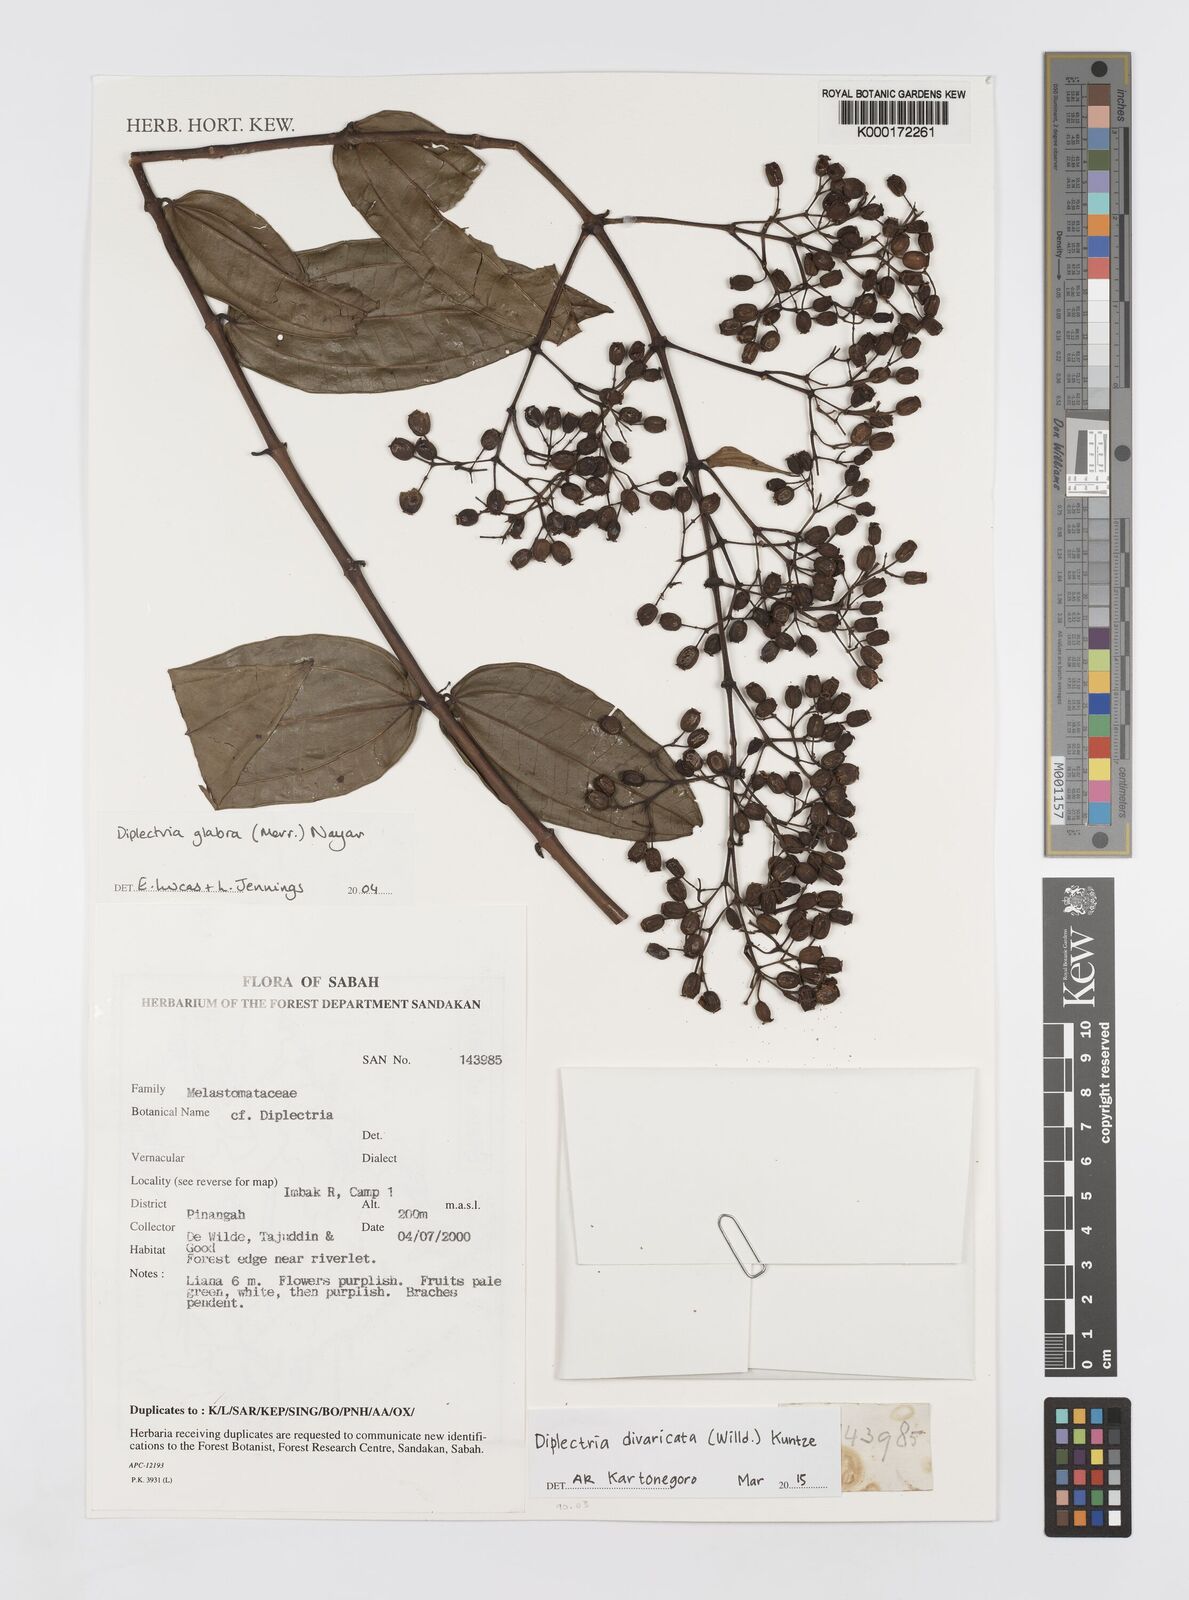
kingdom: Plantae
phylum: Tracheophyta
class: Magnoliopsida
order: Myrtales
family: Melastomataceae
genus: Diplectria
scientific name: Diplectria divaricata
